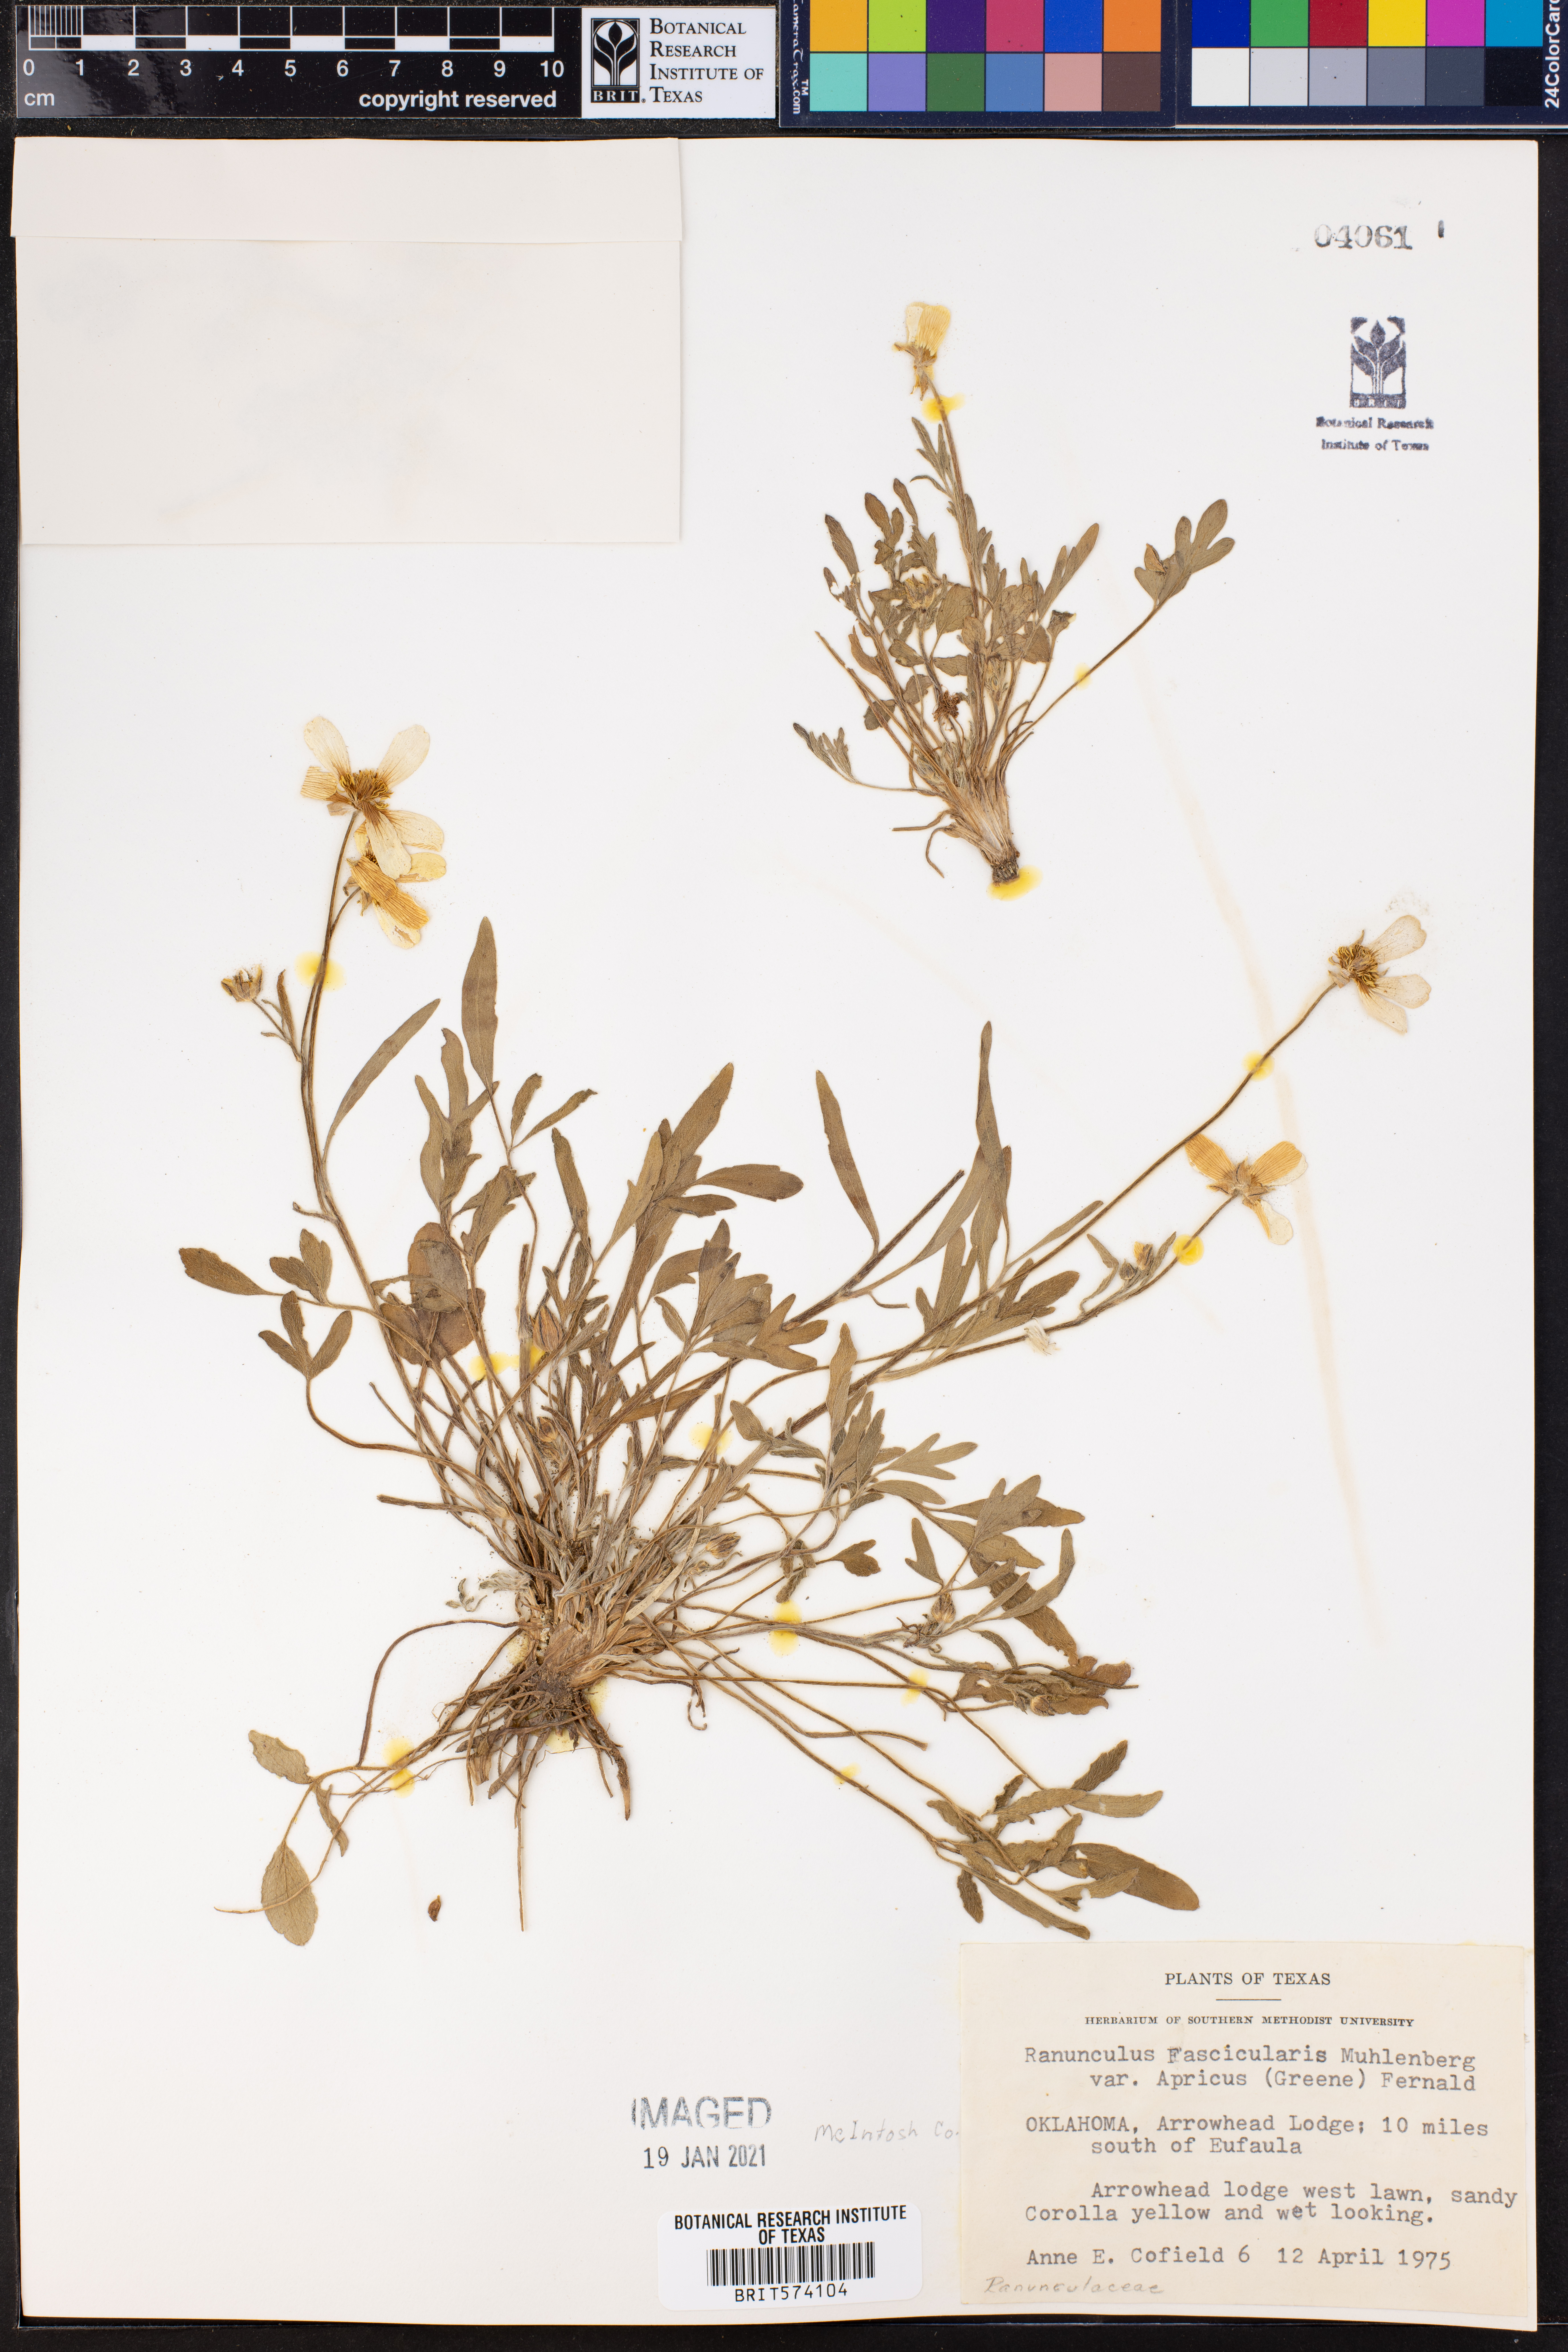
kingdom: Plantae
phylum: Tracheophyta
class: Magnoliopsida
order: Ranunculales
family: Ranunculaceae
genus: Ranunculus
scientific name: Ranunculus fascicularis
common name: Early buttercup
